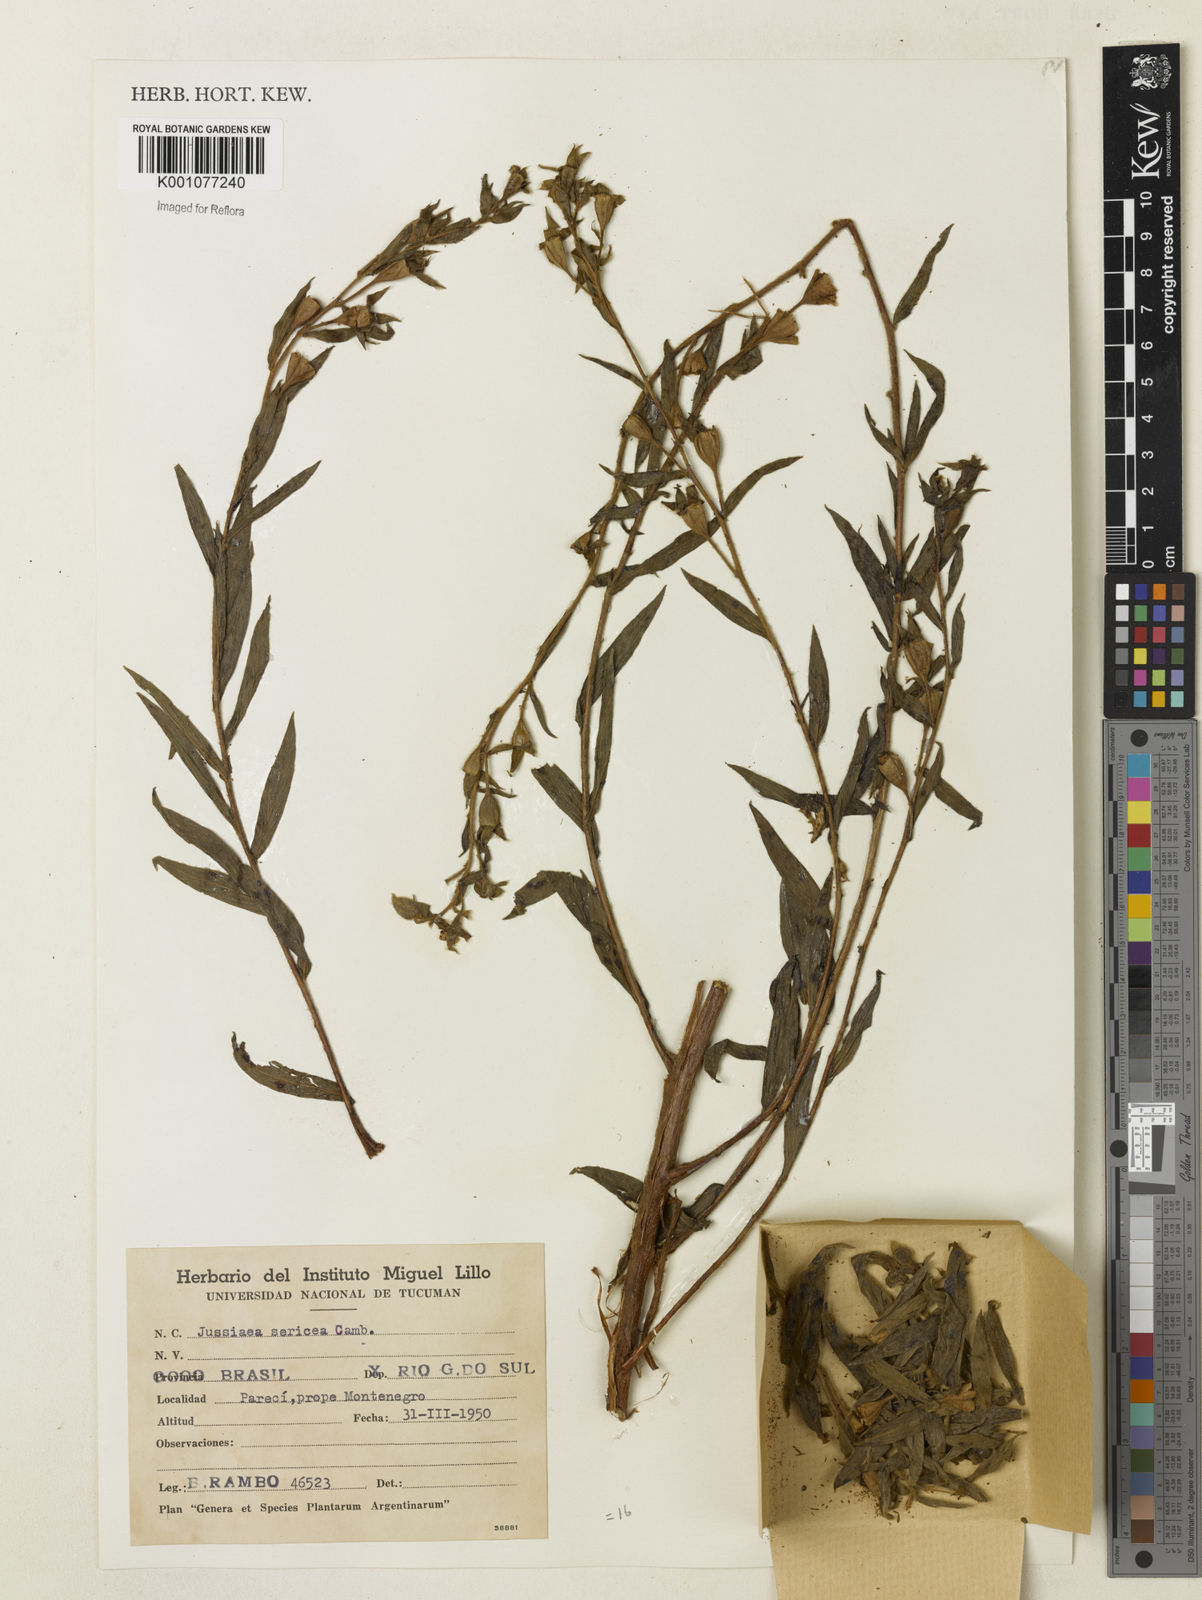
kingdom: Plantae
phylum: Tracheophyta
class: Magnoliopsida
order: Myrtales
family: Onagraceae
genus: Ludwigia
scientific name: Ludwigia sericea
